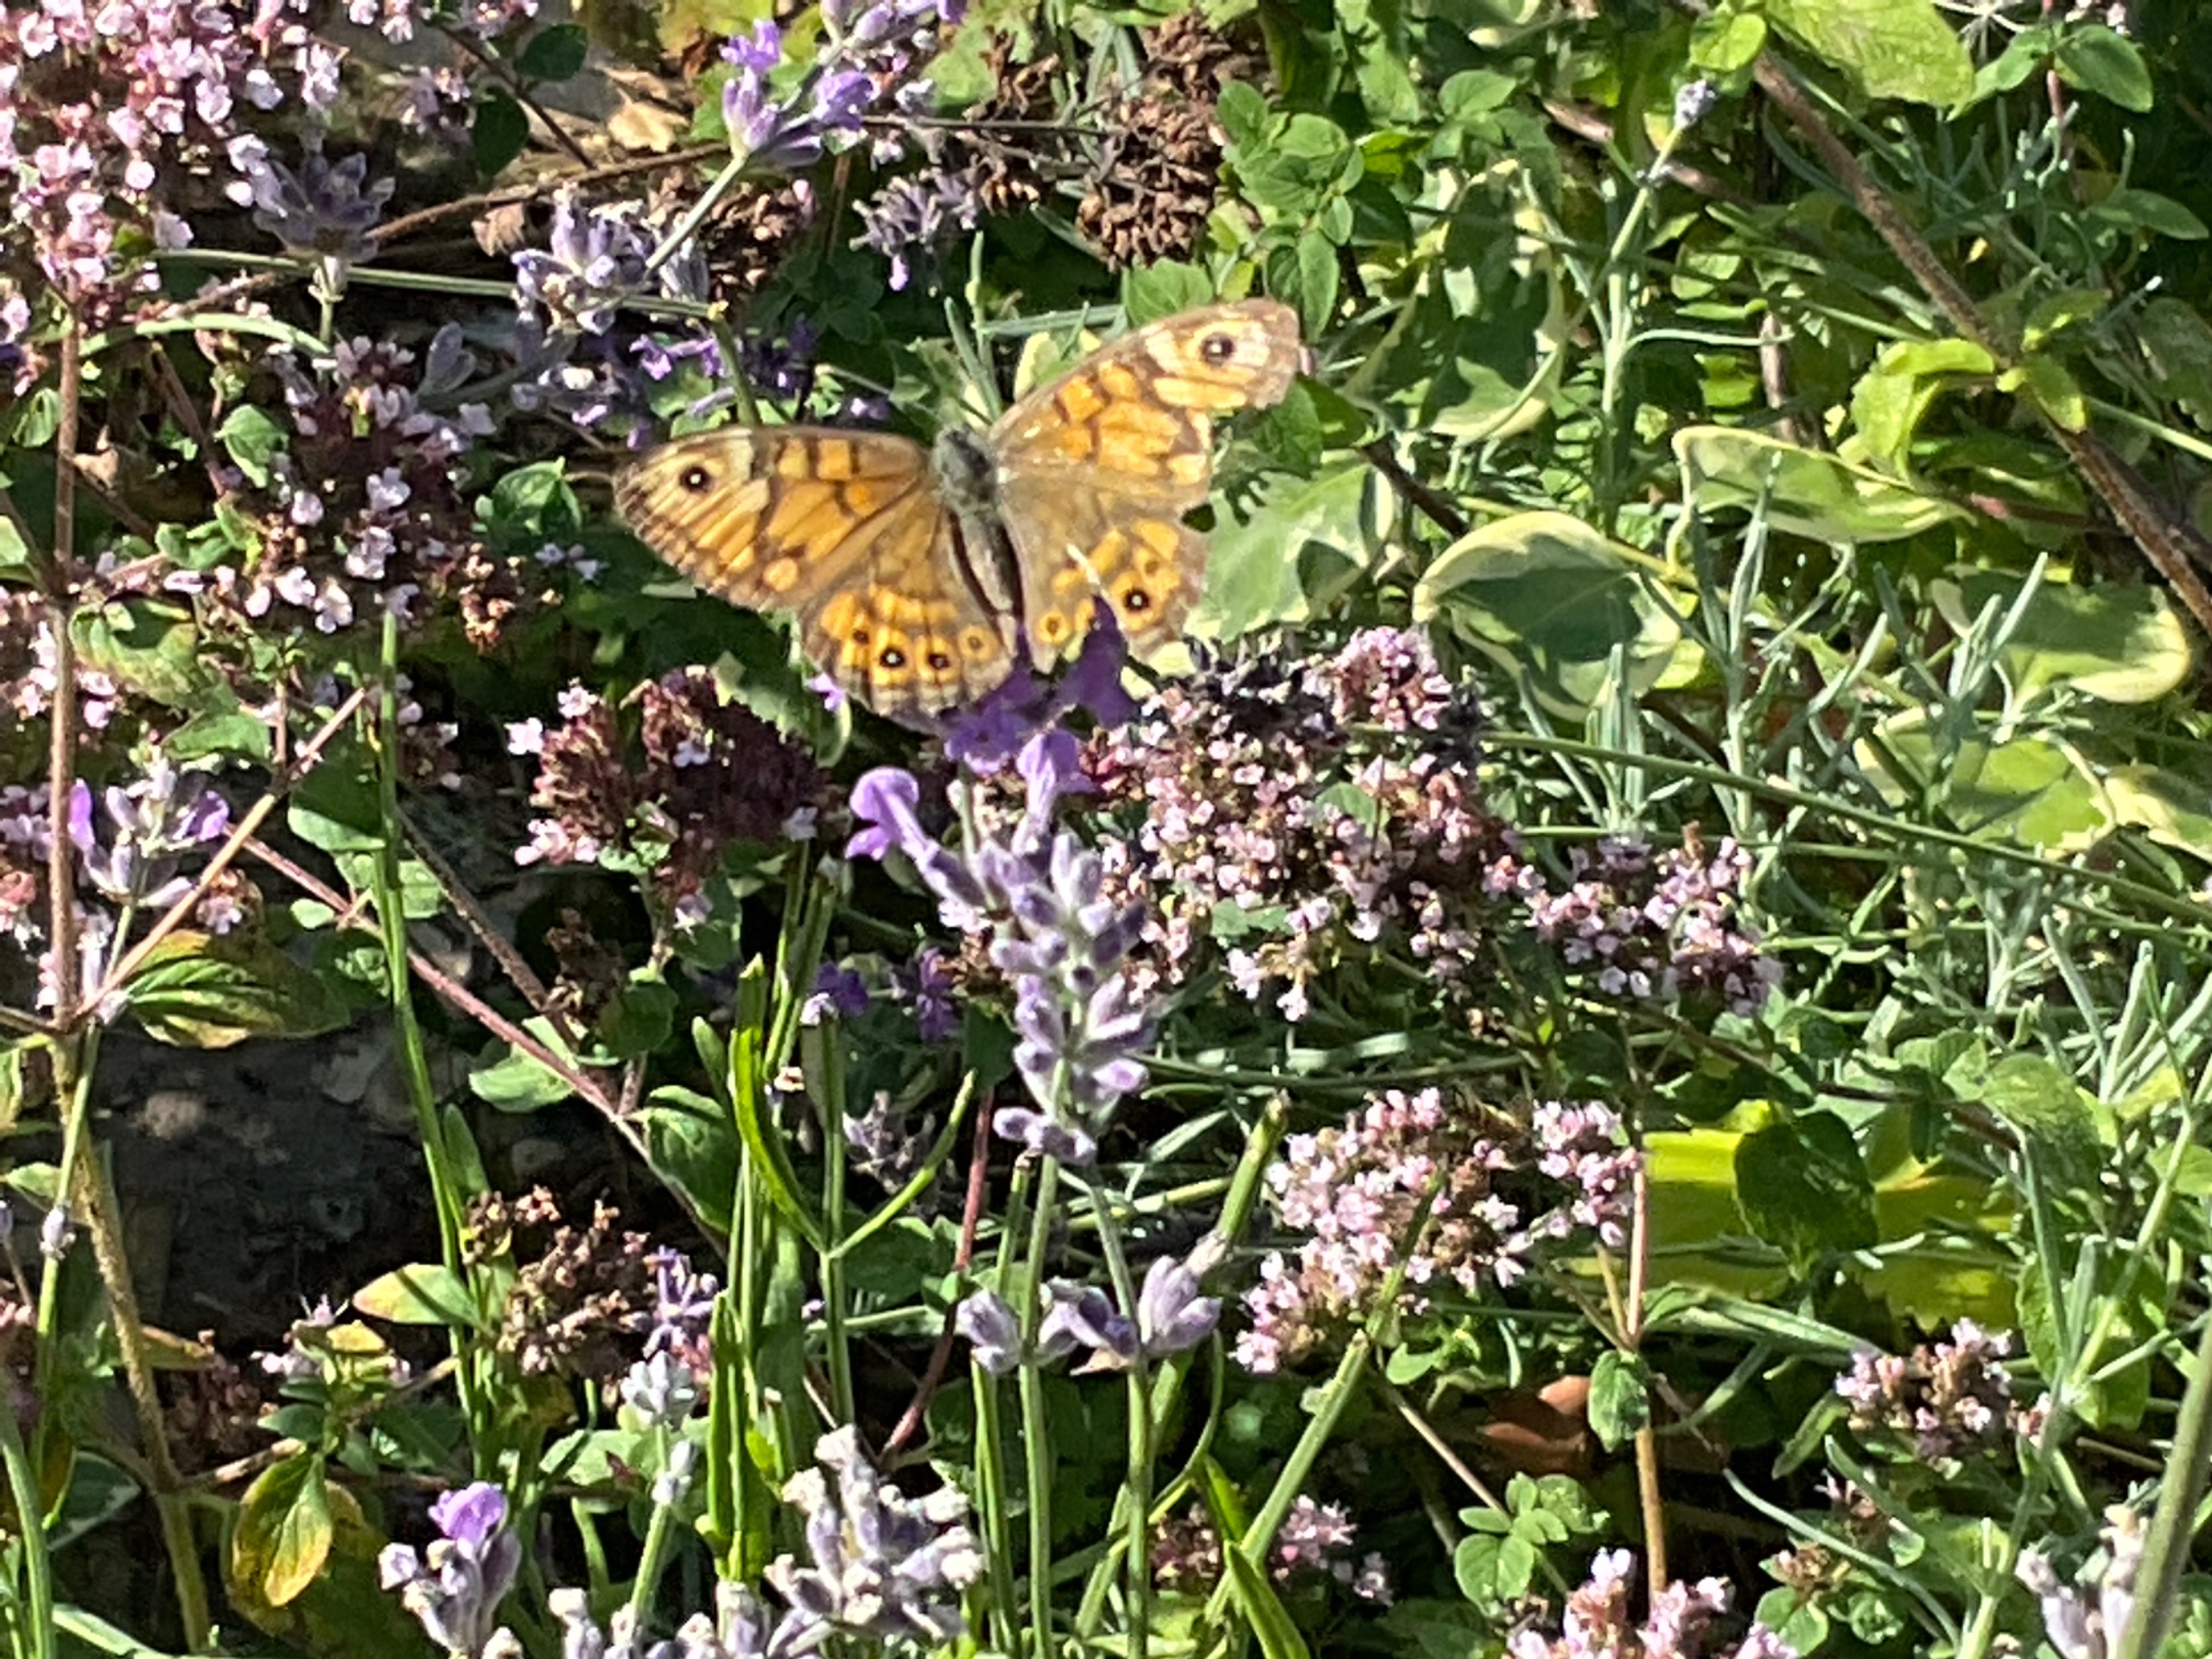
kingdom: Animalia
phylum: Arthropoda
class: Insecta
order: Lepidoptera
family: Nymphalidae
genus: Pararge
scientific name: Pararge Lasiommata megera
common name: Vejrandøje
